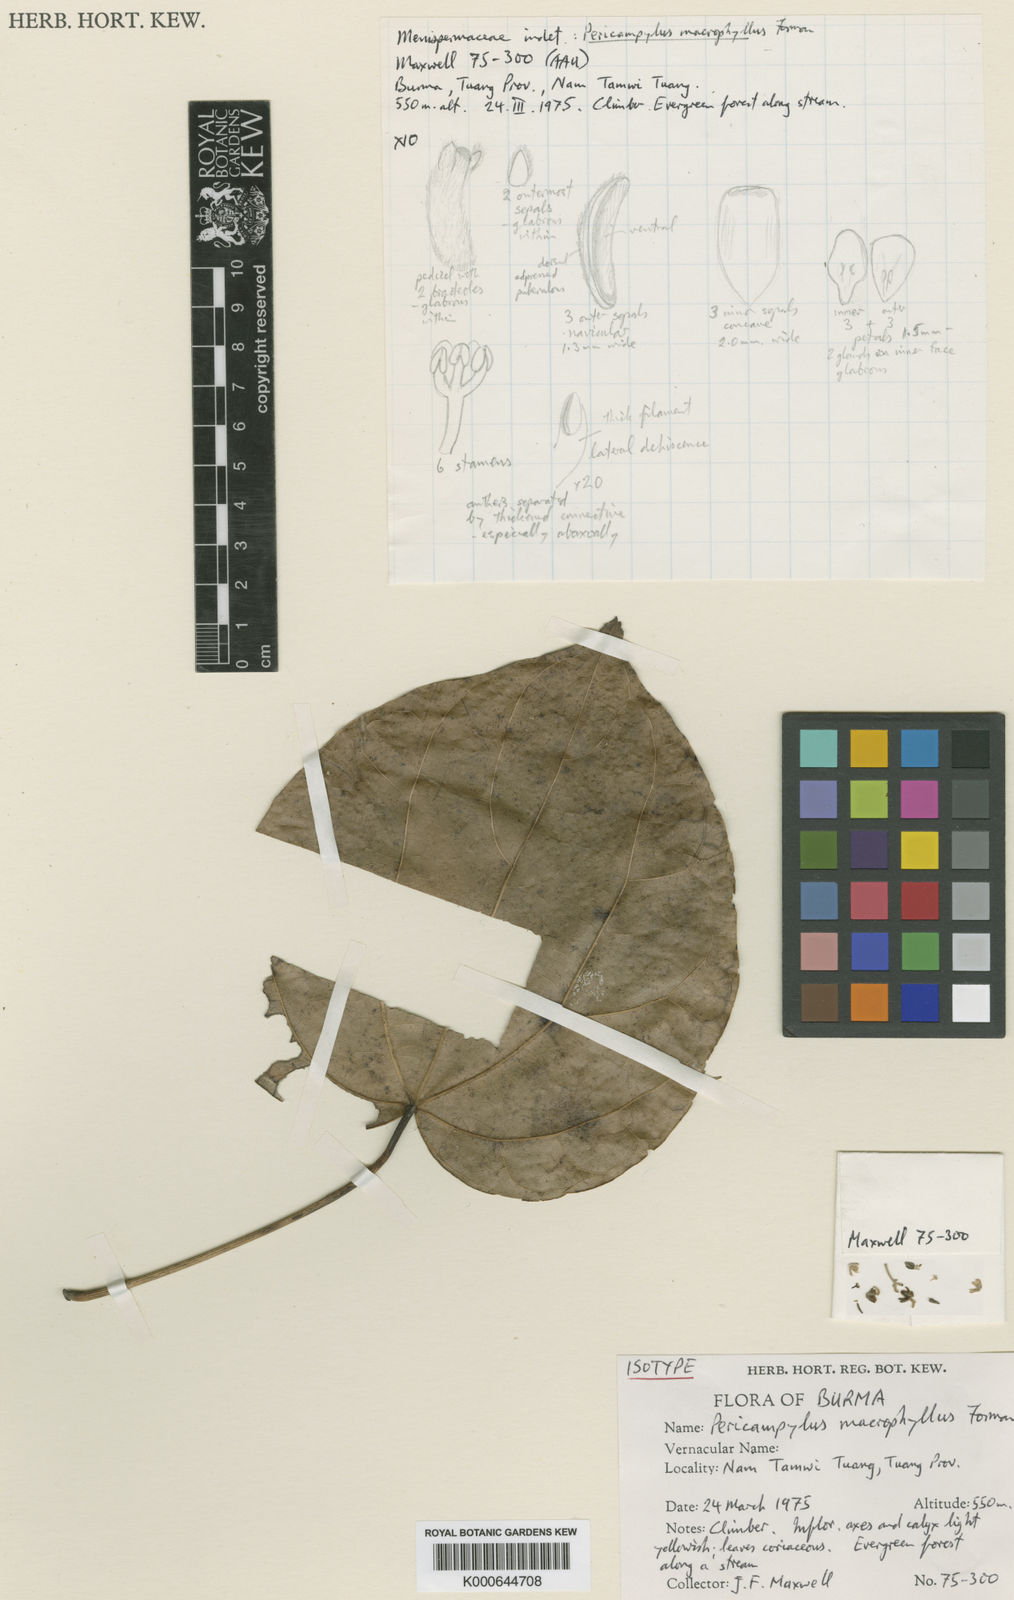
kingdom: Plantae
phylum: Tracheophyta
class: Magnoliopsida
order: Ranunculales
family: Menispermaceae
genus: Pericampylus
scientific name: Pericampylus macrophyllus
